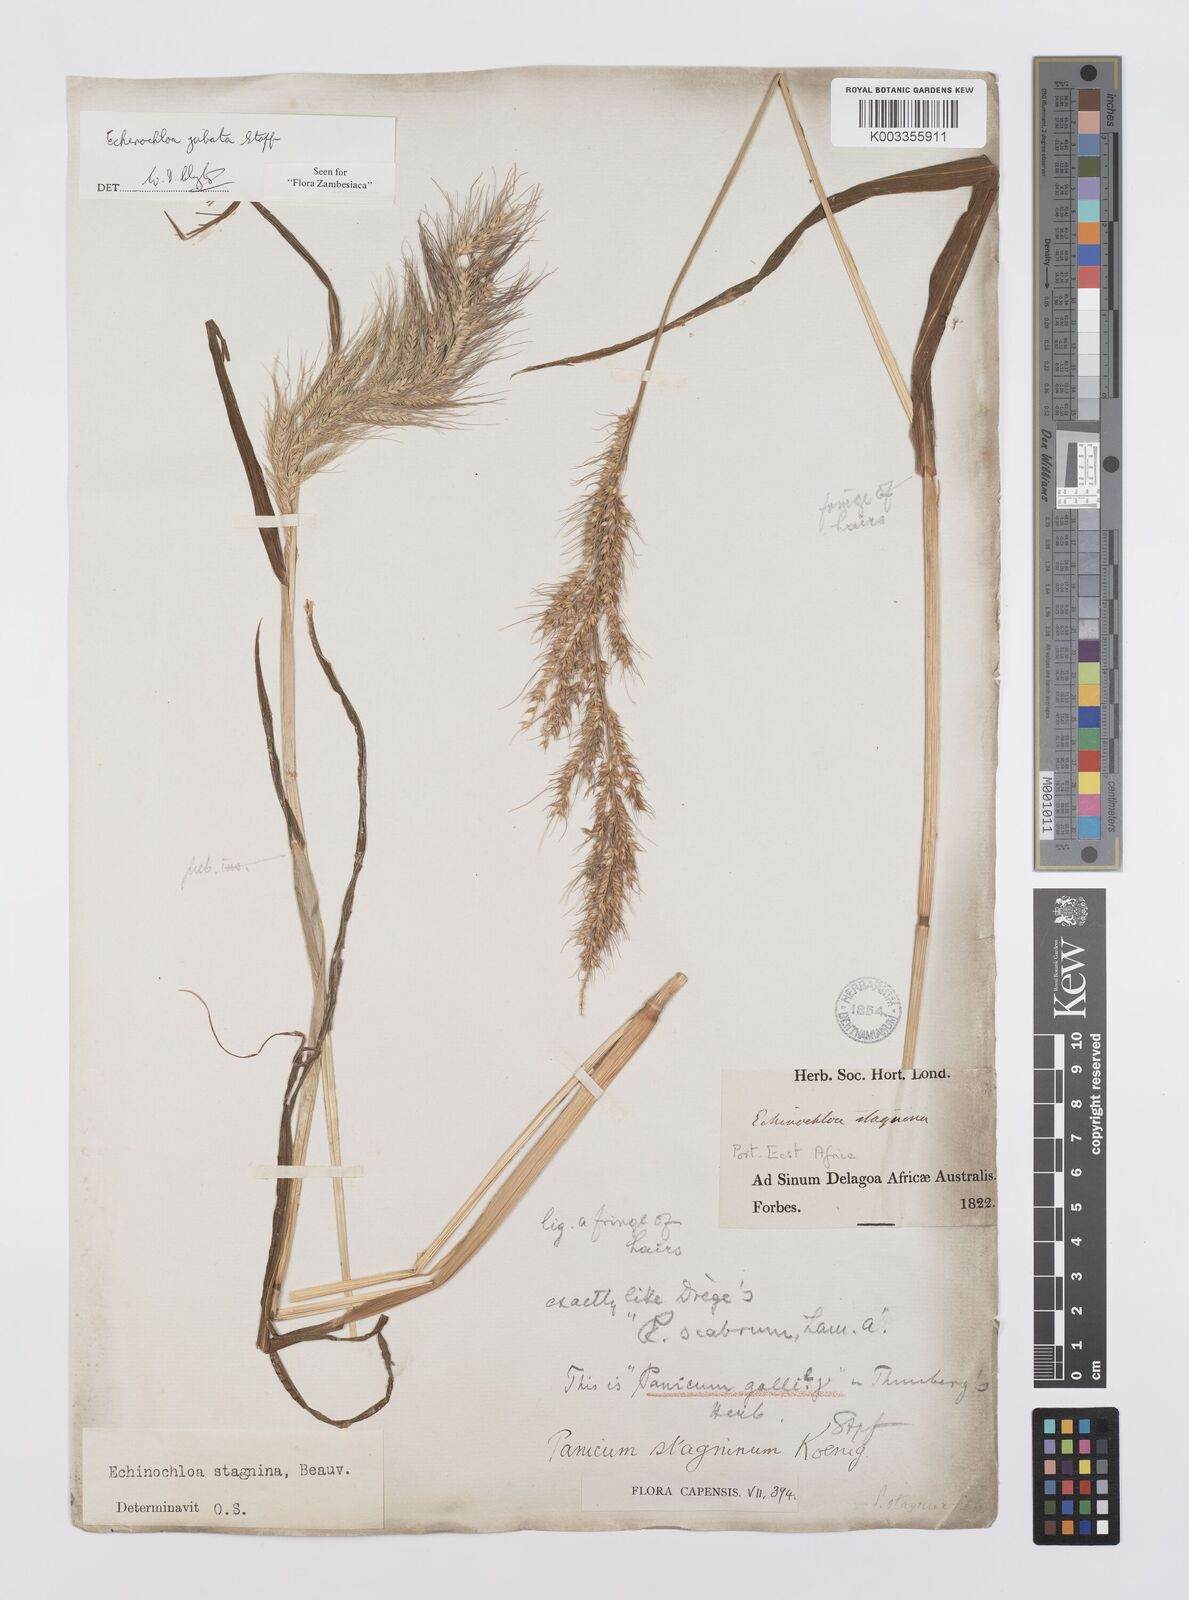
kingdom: Plantae
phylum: Tracheophyta
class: Liliopsida
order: Poales
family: Poaceae
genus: Echinochloa
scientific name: Echinochloa jubata
